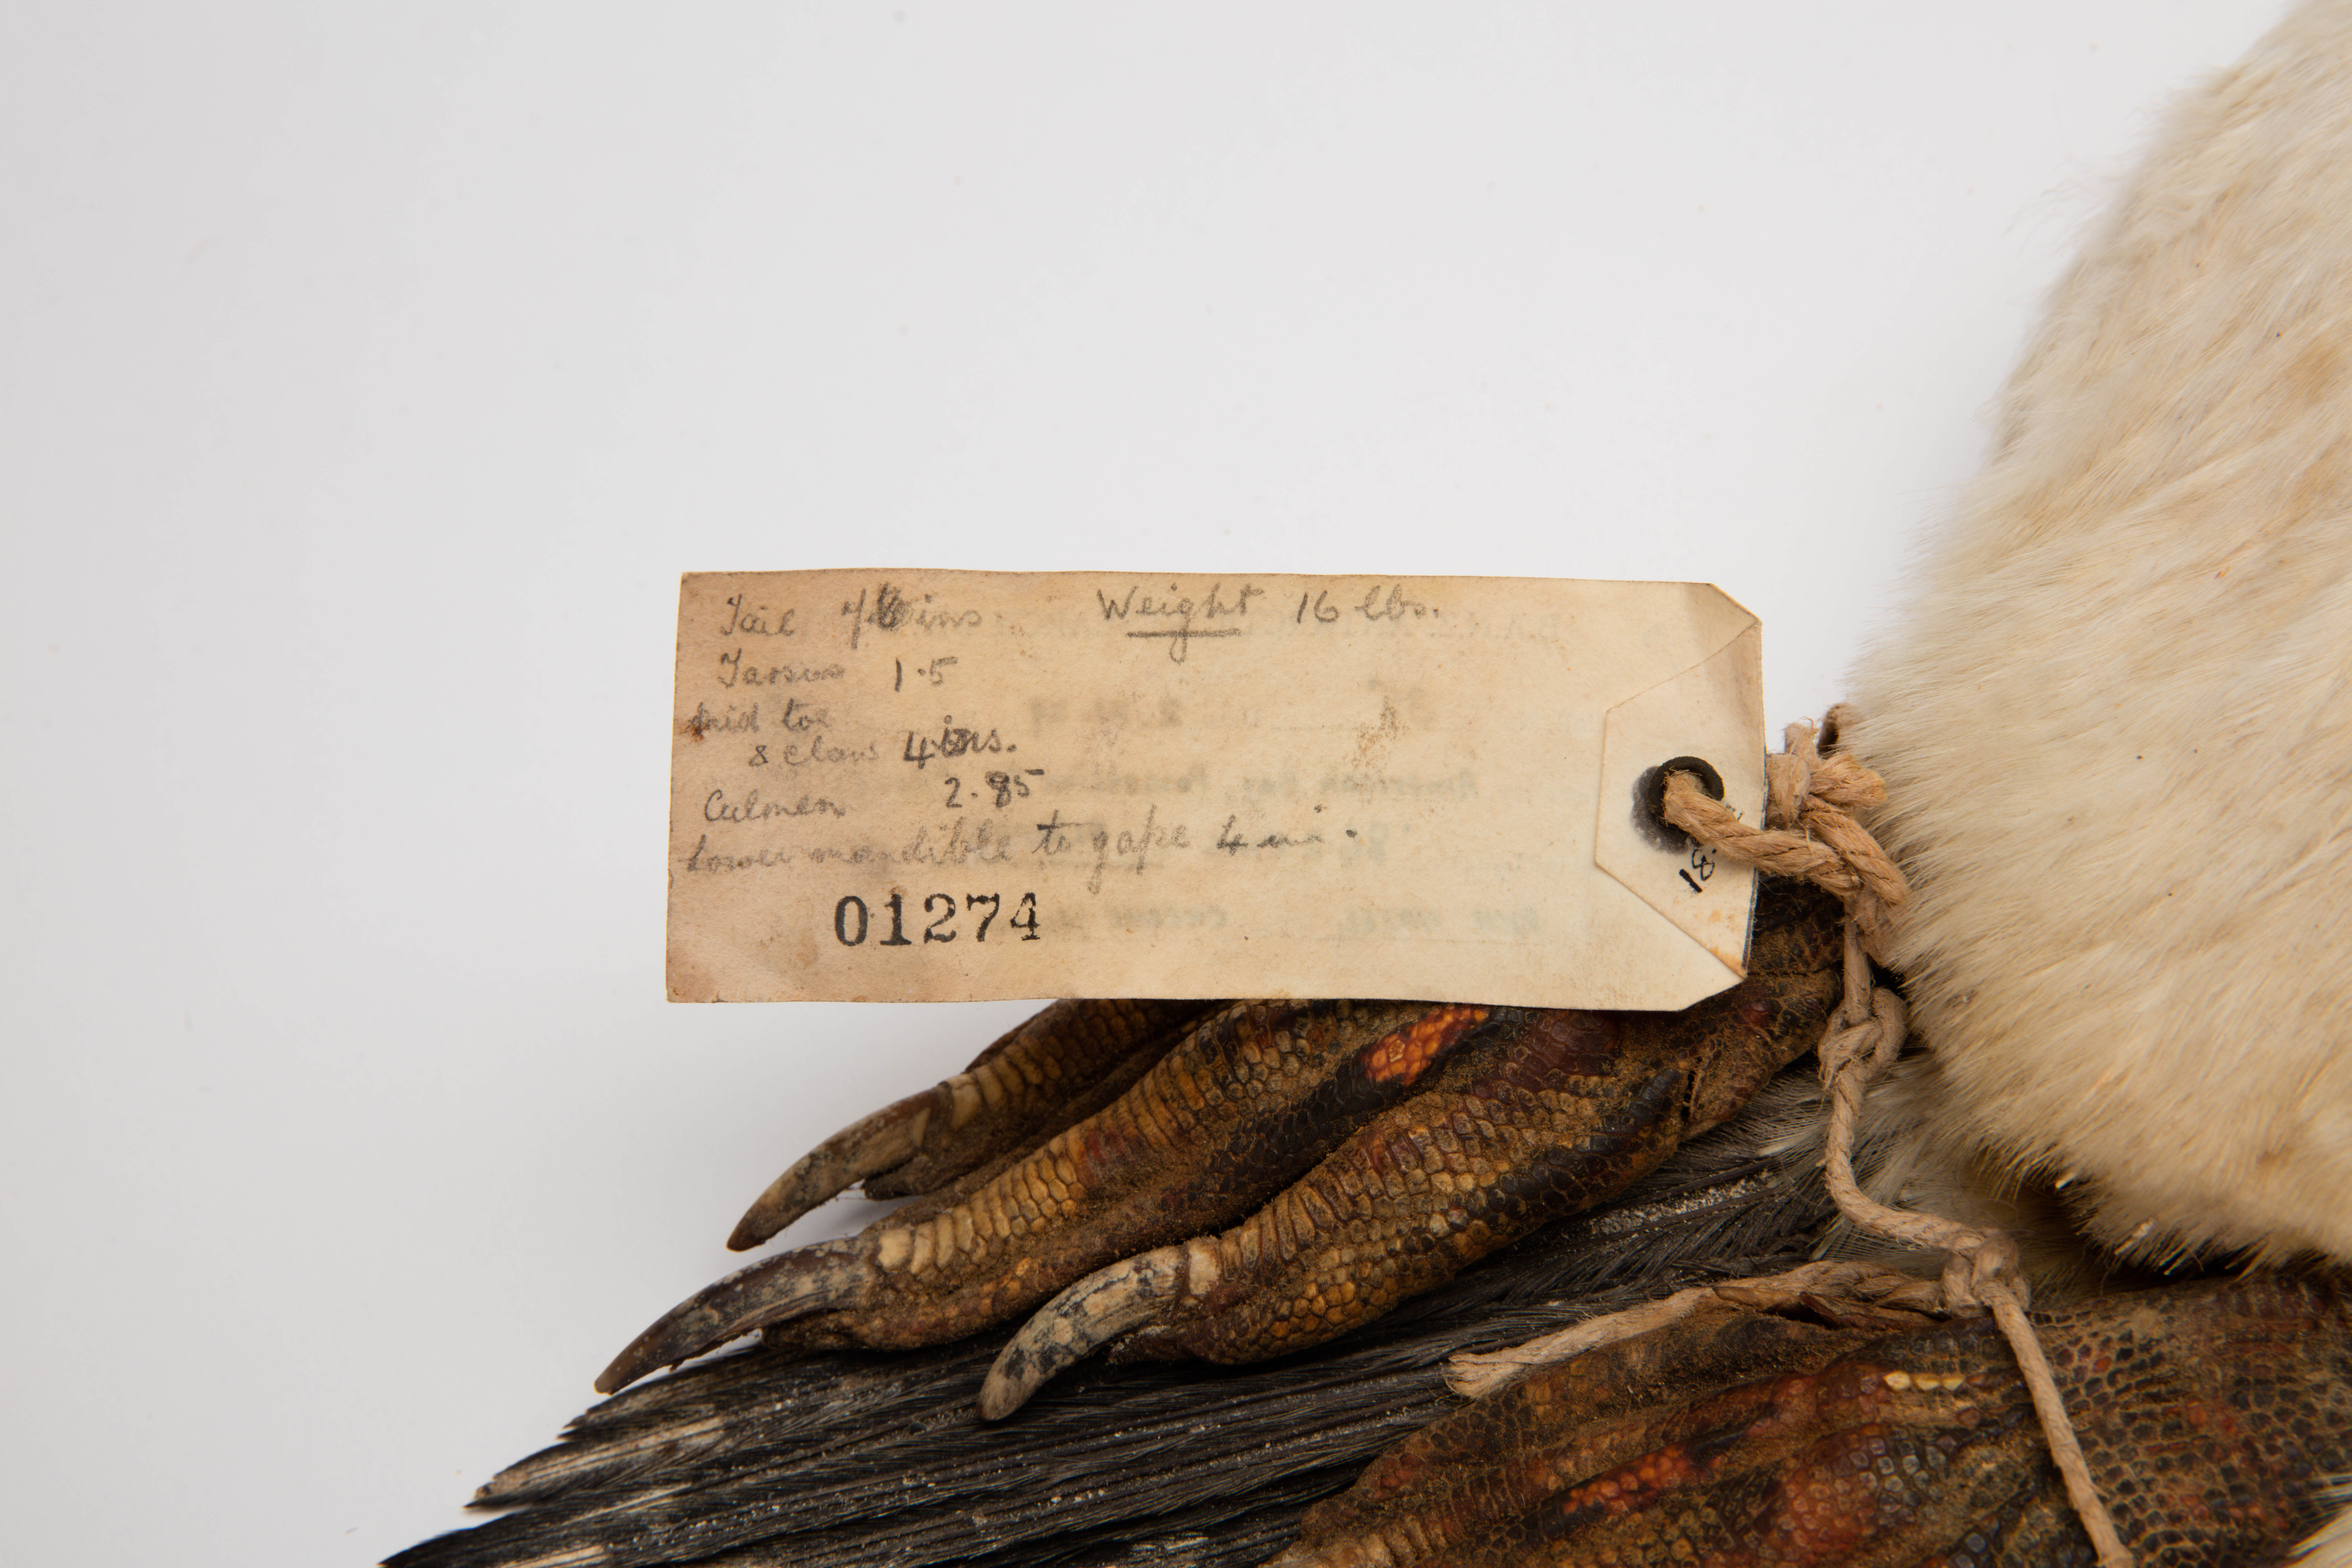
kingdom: Animalia
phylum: Chordata
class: Aves
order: Sphenisciformes
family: Spheniscidae
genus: Pygoscelis
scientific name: Pygoscelis papua
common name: Gentoo penguin
